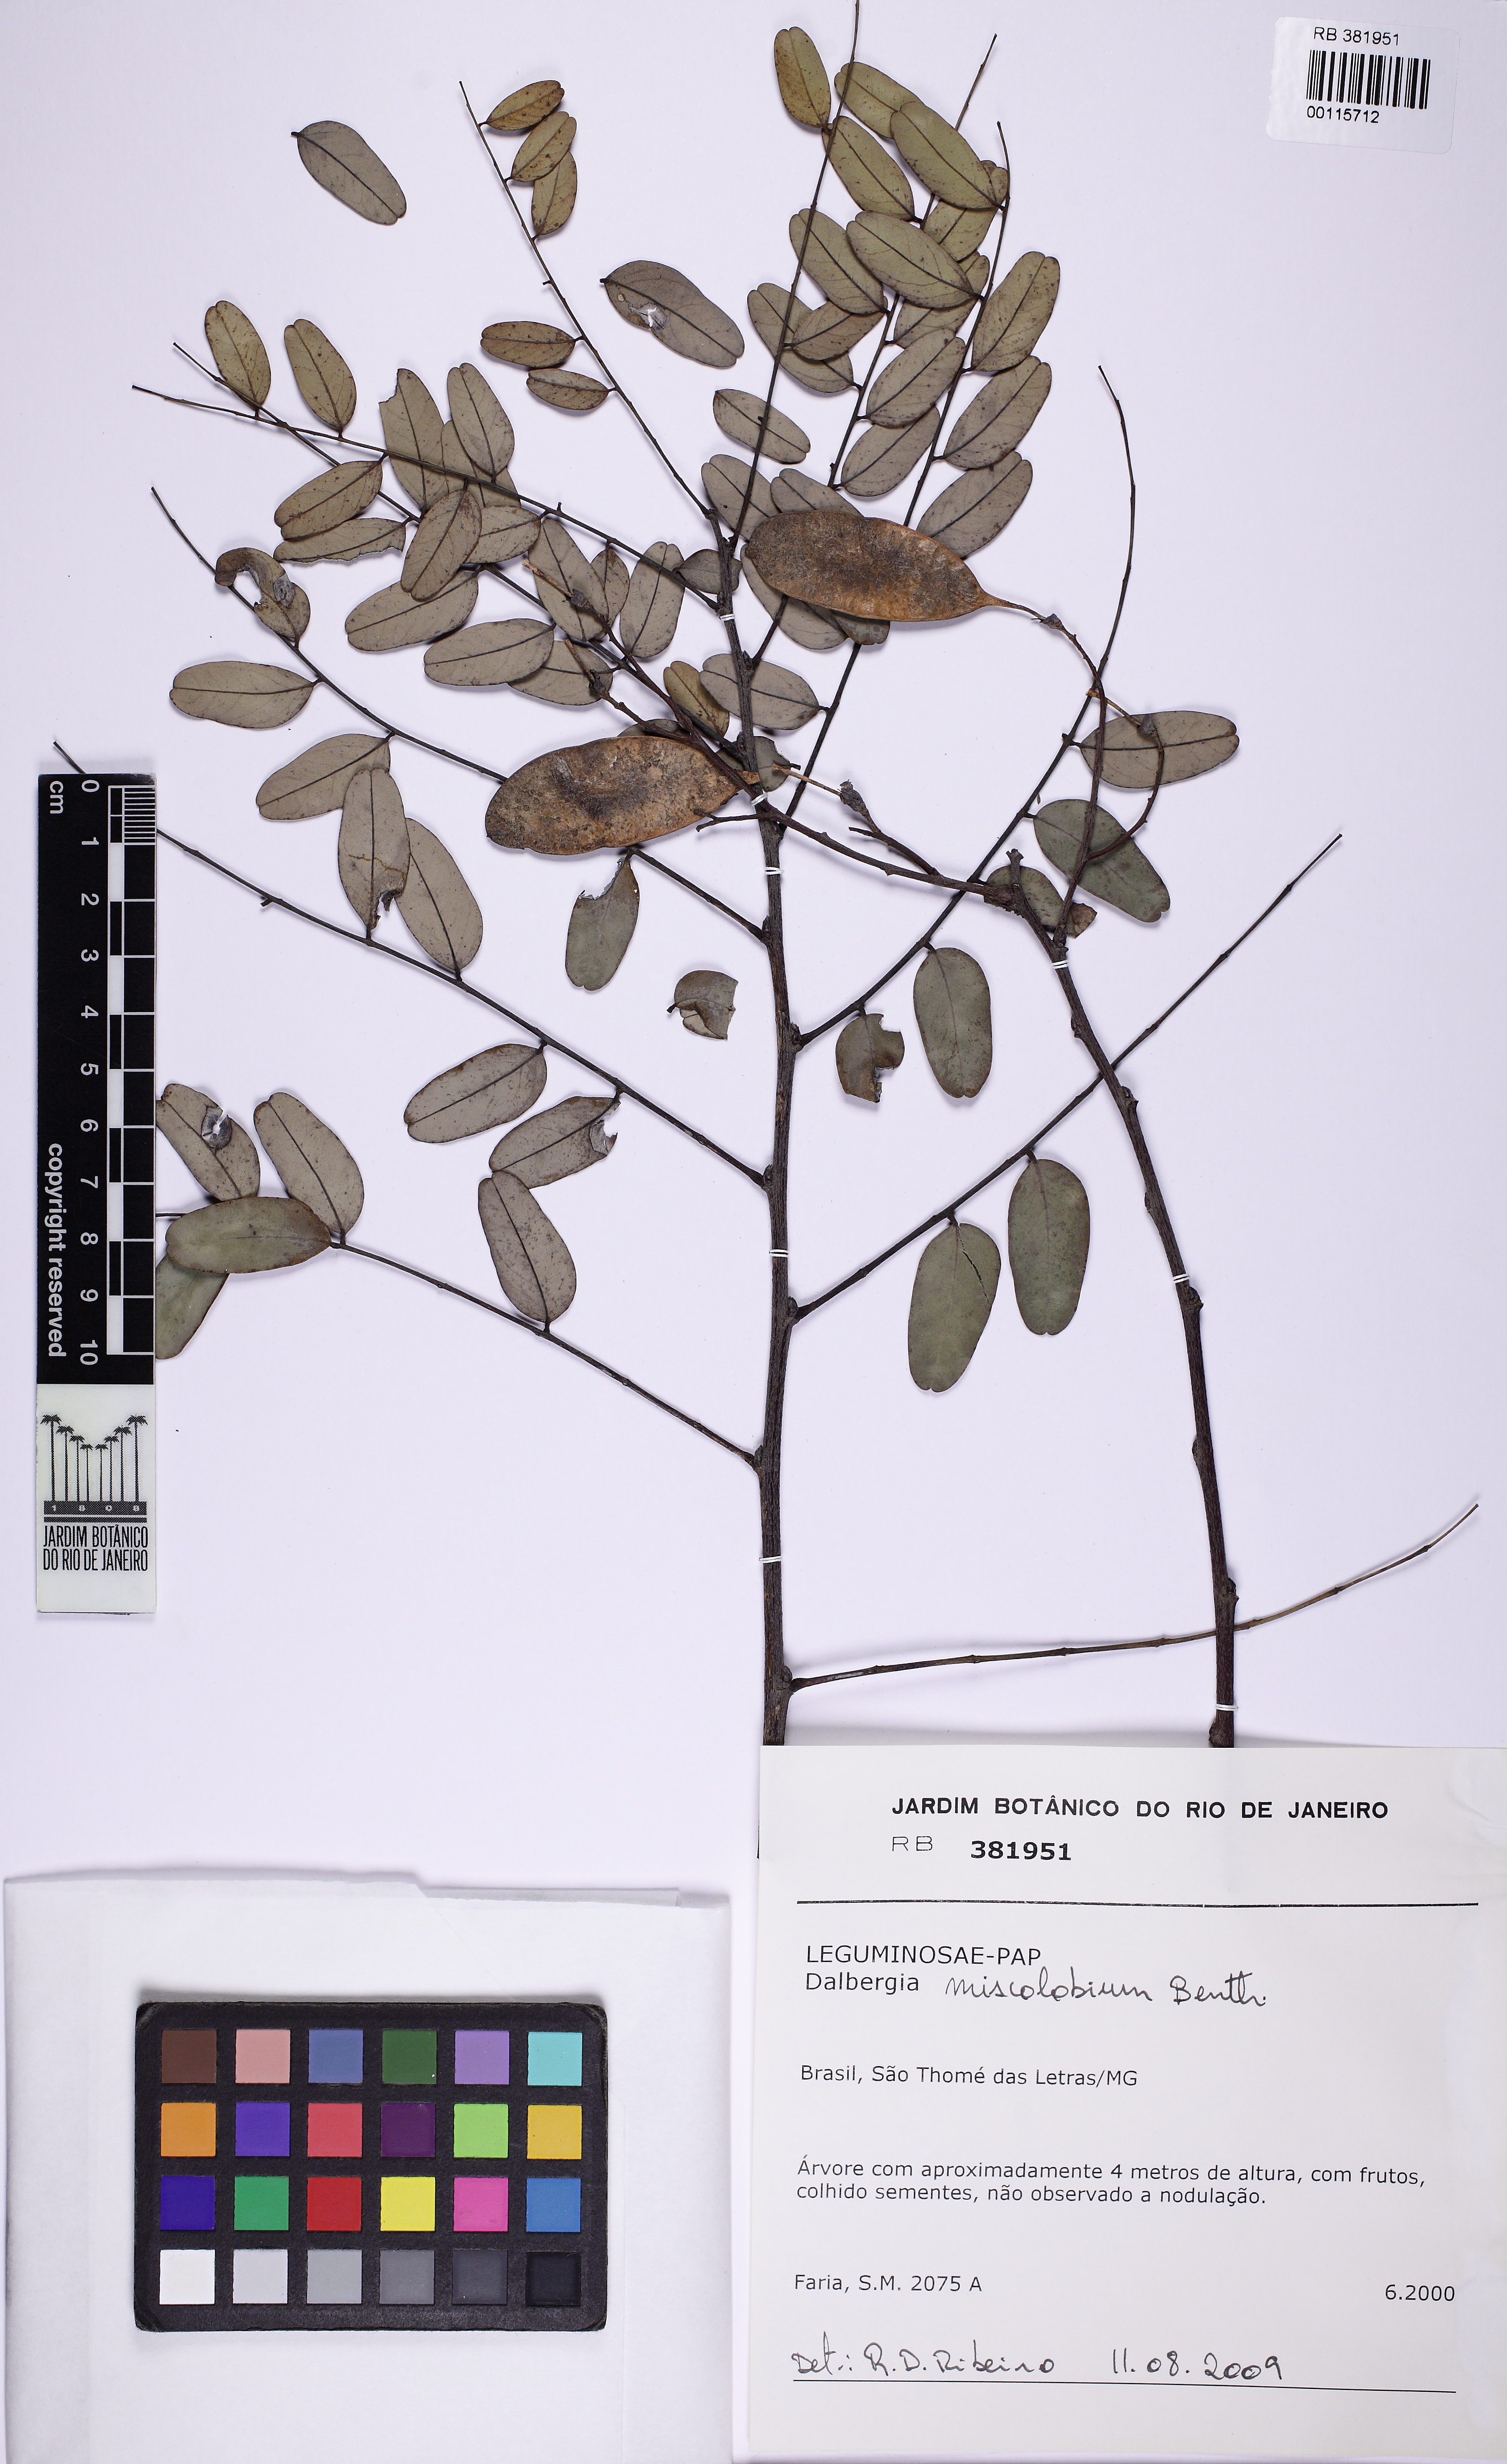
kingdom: Plantae
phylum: Tracheophyta
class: Magnoliopsida
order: Fabales
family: Fabaceae
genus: Dalbergia
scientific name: Dalbergia
